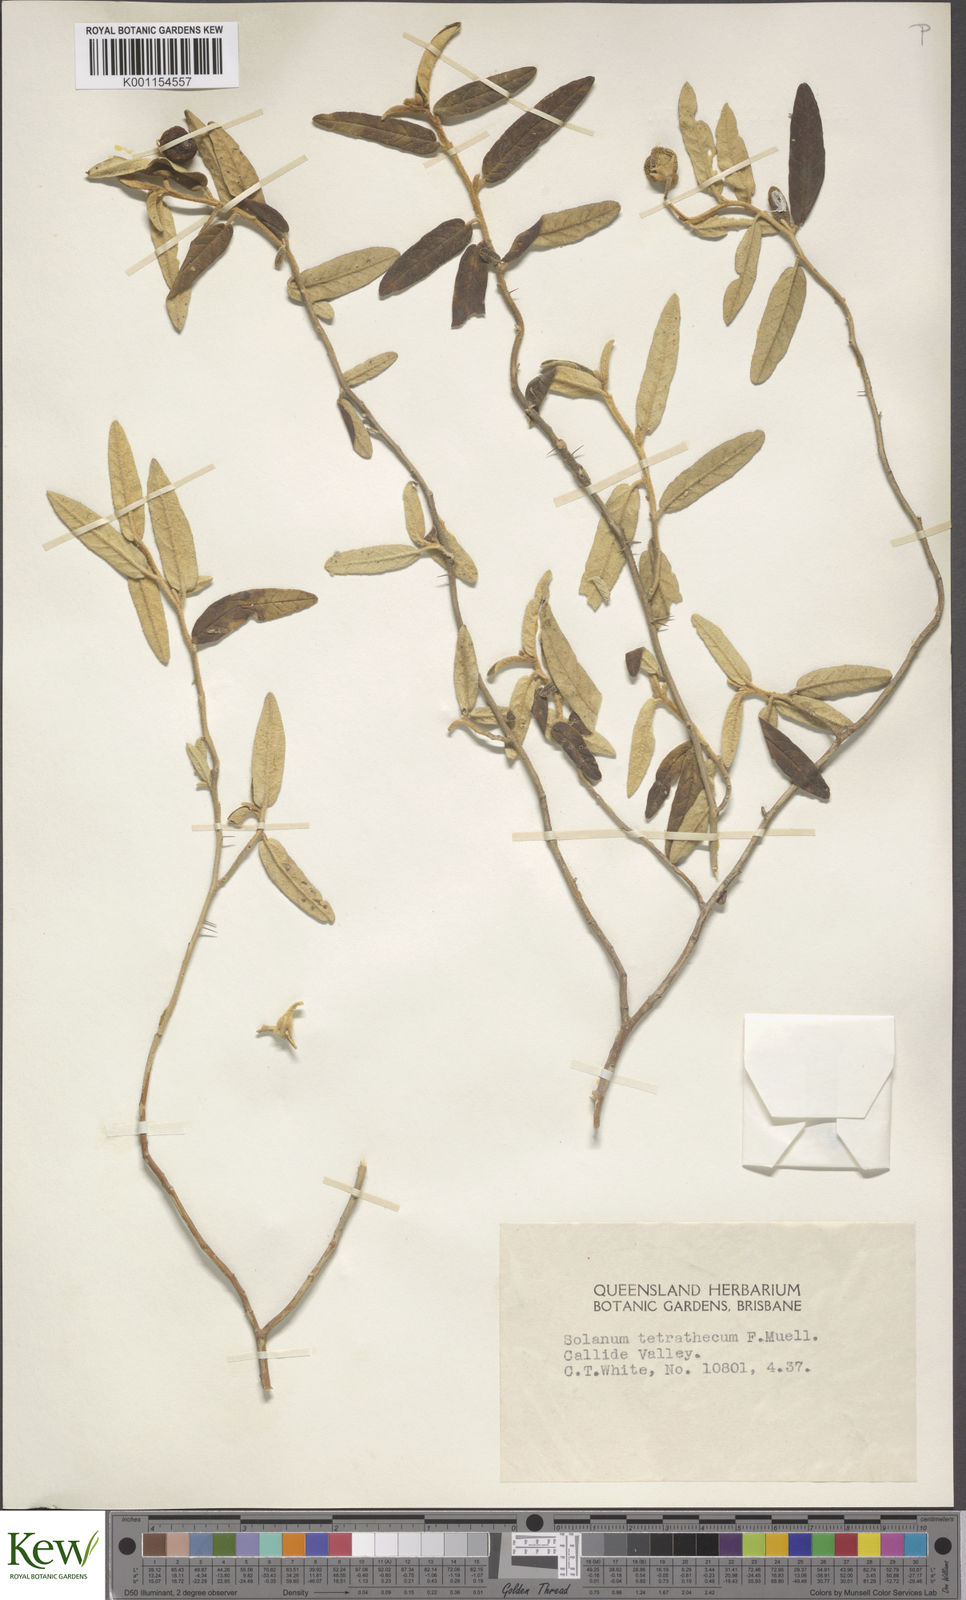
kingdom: Plantae
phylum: Tracheophyta
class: Magnoliopsida
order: Solanales
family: Solanaceae
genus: Solanum
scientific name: Solanum tetrathecum
